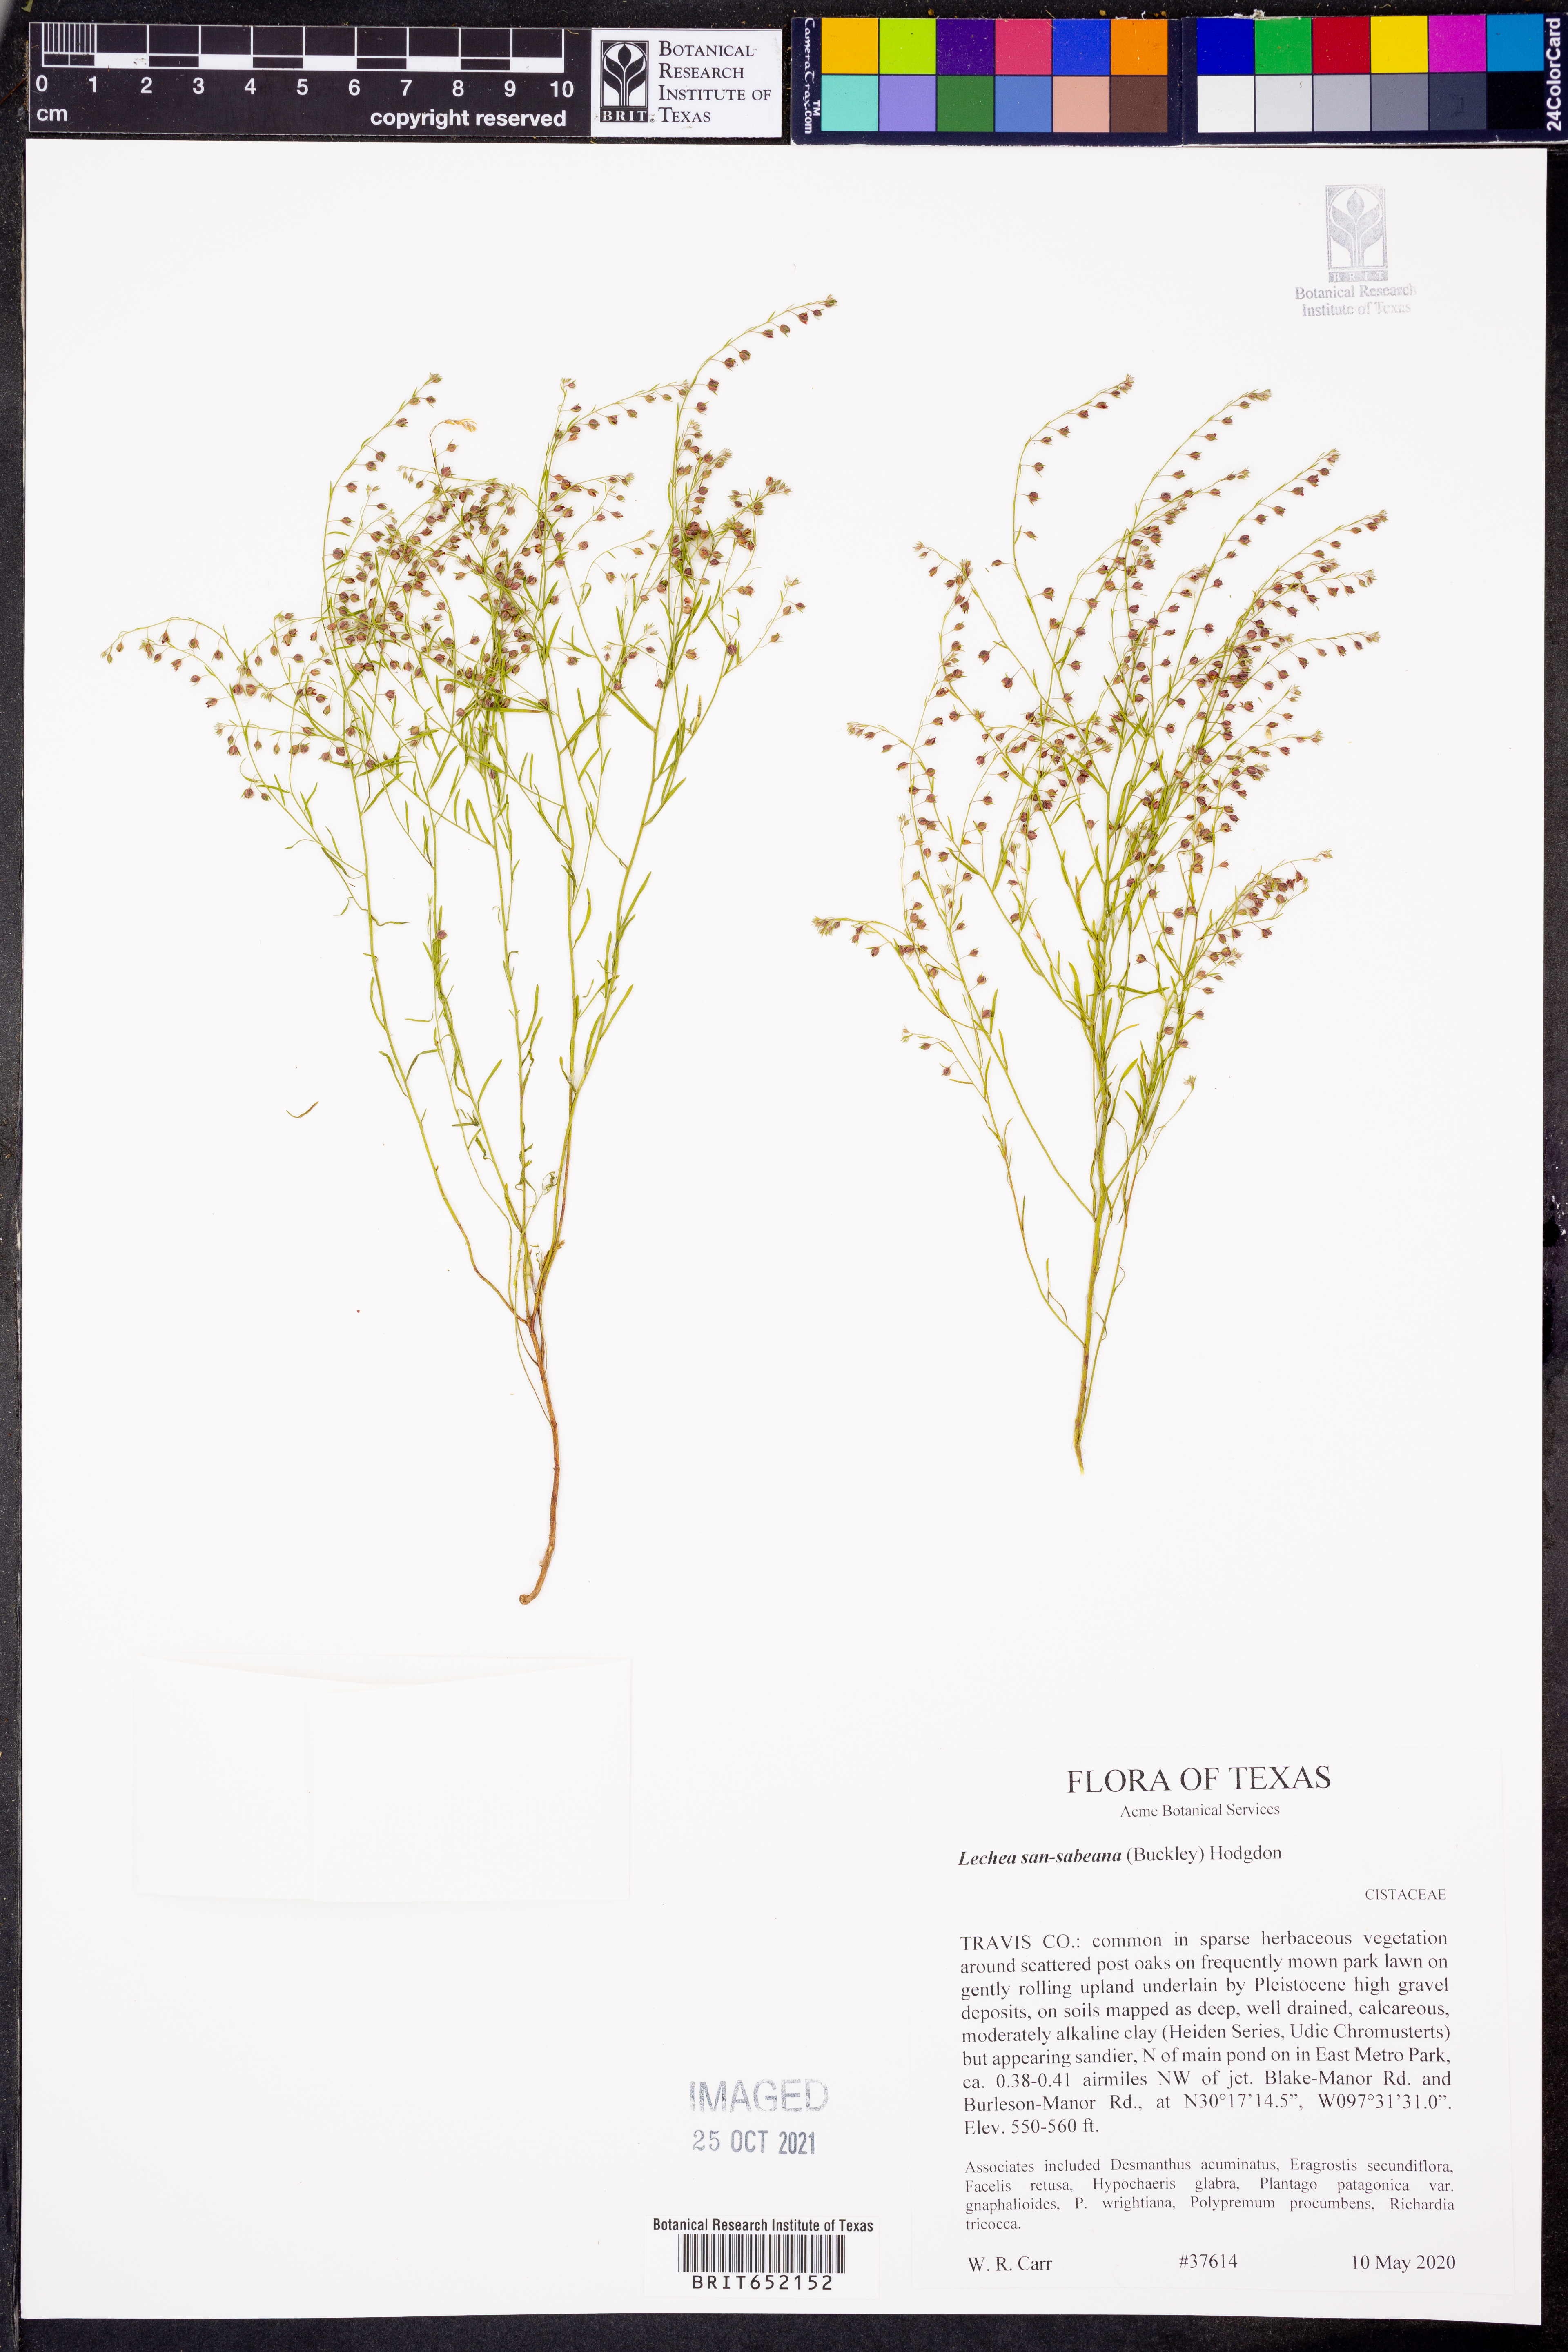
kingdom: Plantae
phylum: Tracheophyta
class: Magnoliopsida
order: Malvales
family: Cistaceae
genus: Lechea
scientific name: Lechea san-sabeana
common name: San saba pinweed
